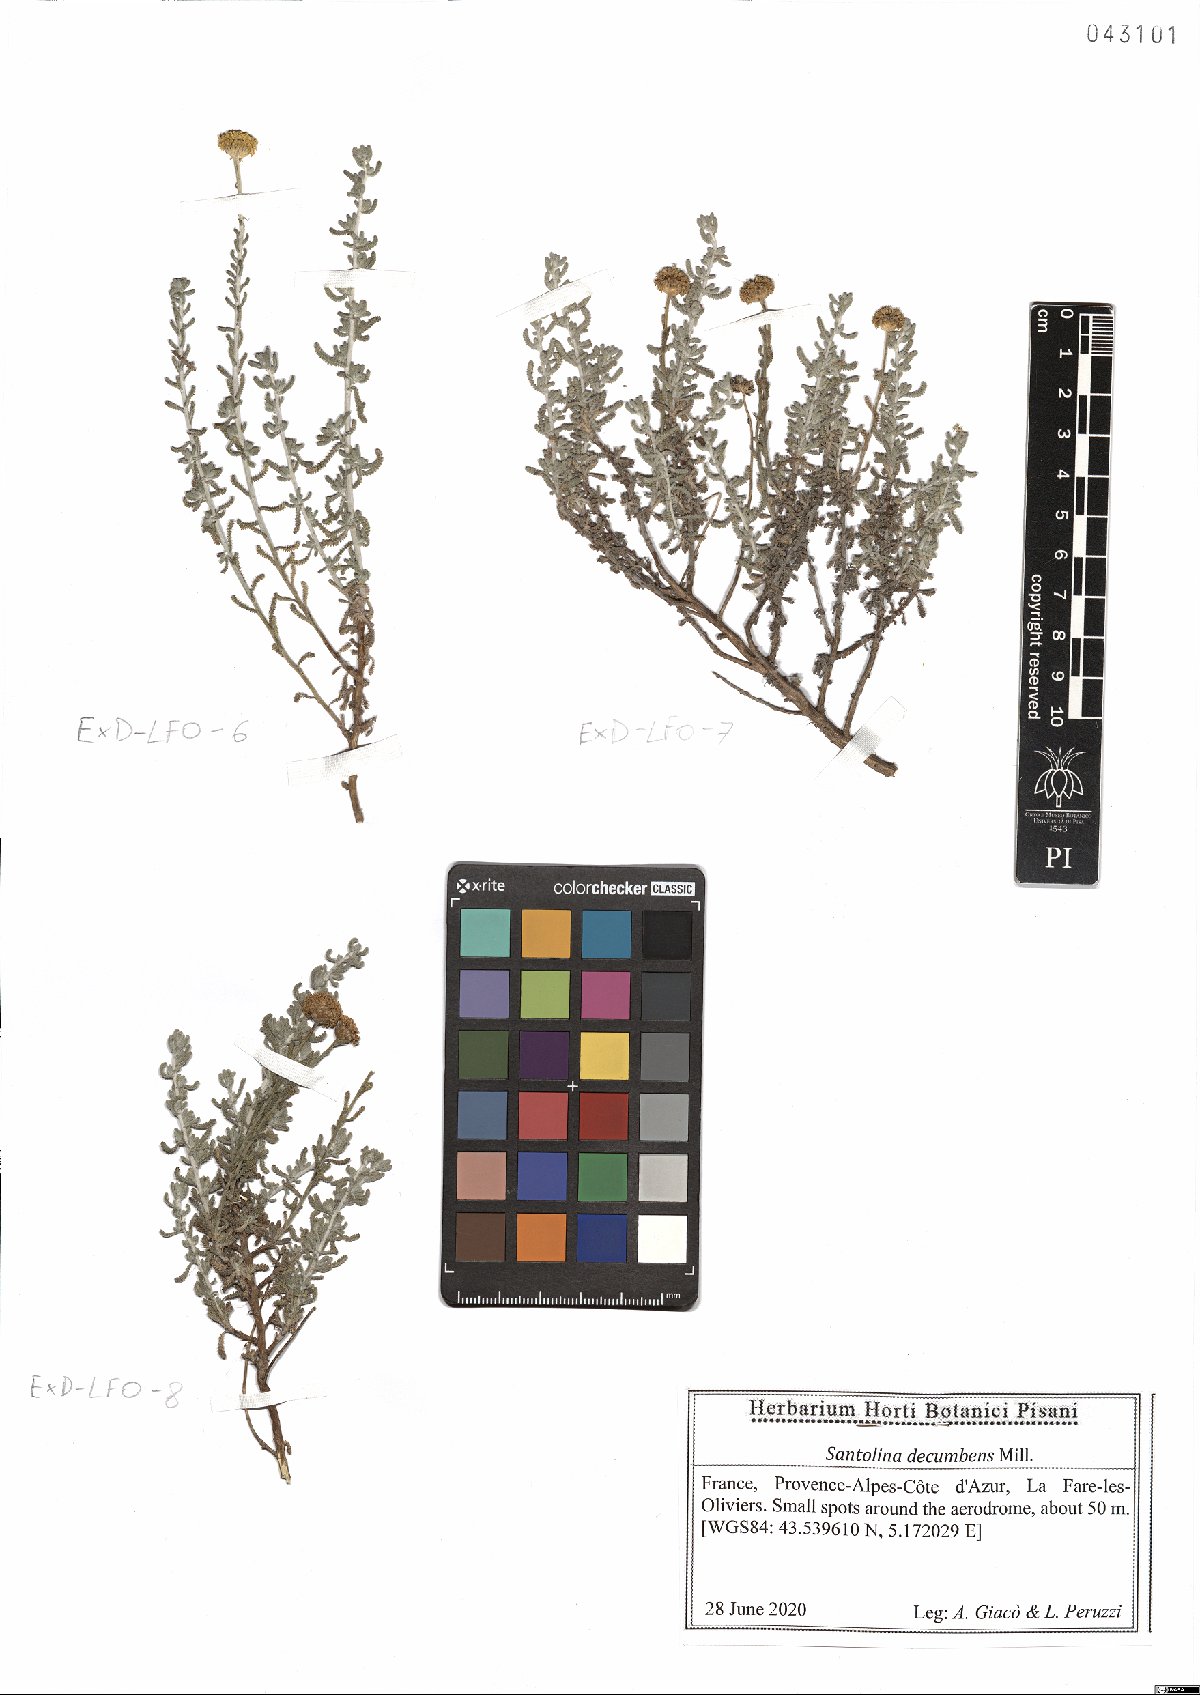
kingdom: Plantae
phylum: Tracheophyta
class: Magnoliopsida
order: Asterales
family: Asteraceae
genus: Santolina
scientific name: Santolina decumbens
